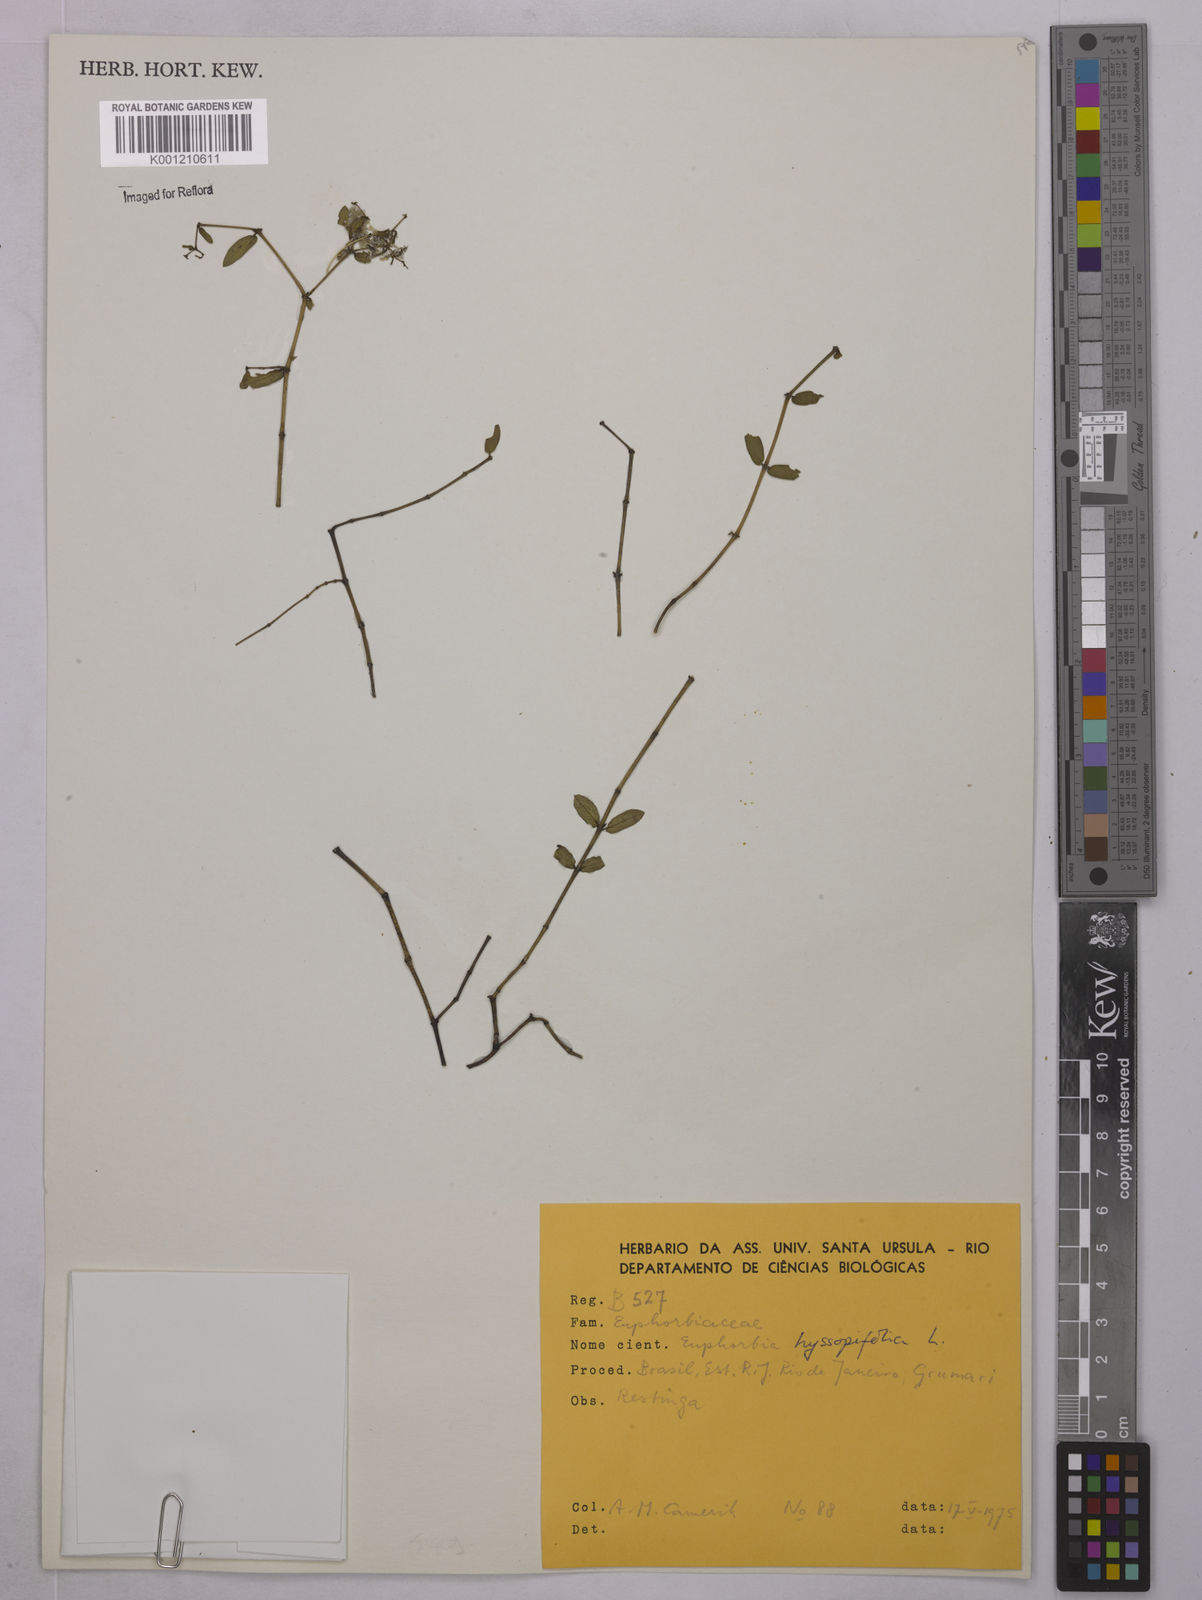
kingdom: Plantae
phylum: Tracheophyta
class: Magnoliopsida
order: Malpighiales
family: Euphorbiaceae
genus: Euphorbia
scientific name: Euphorbia hyssopifolia
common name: Hyssopleaf sandmat
